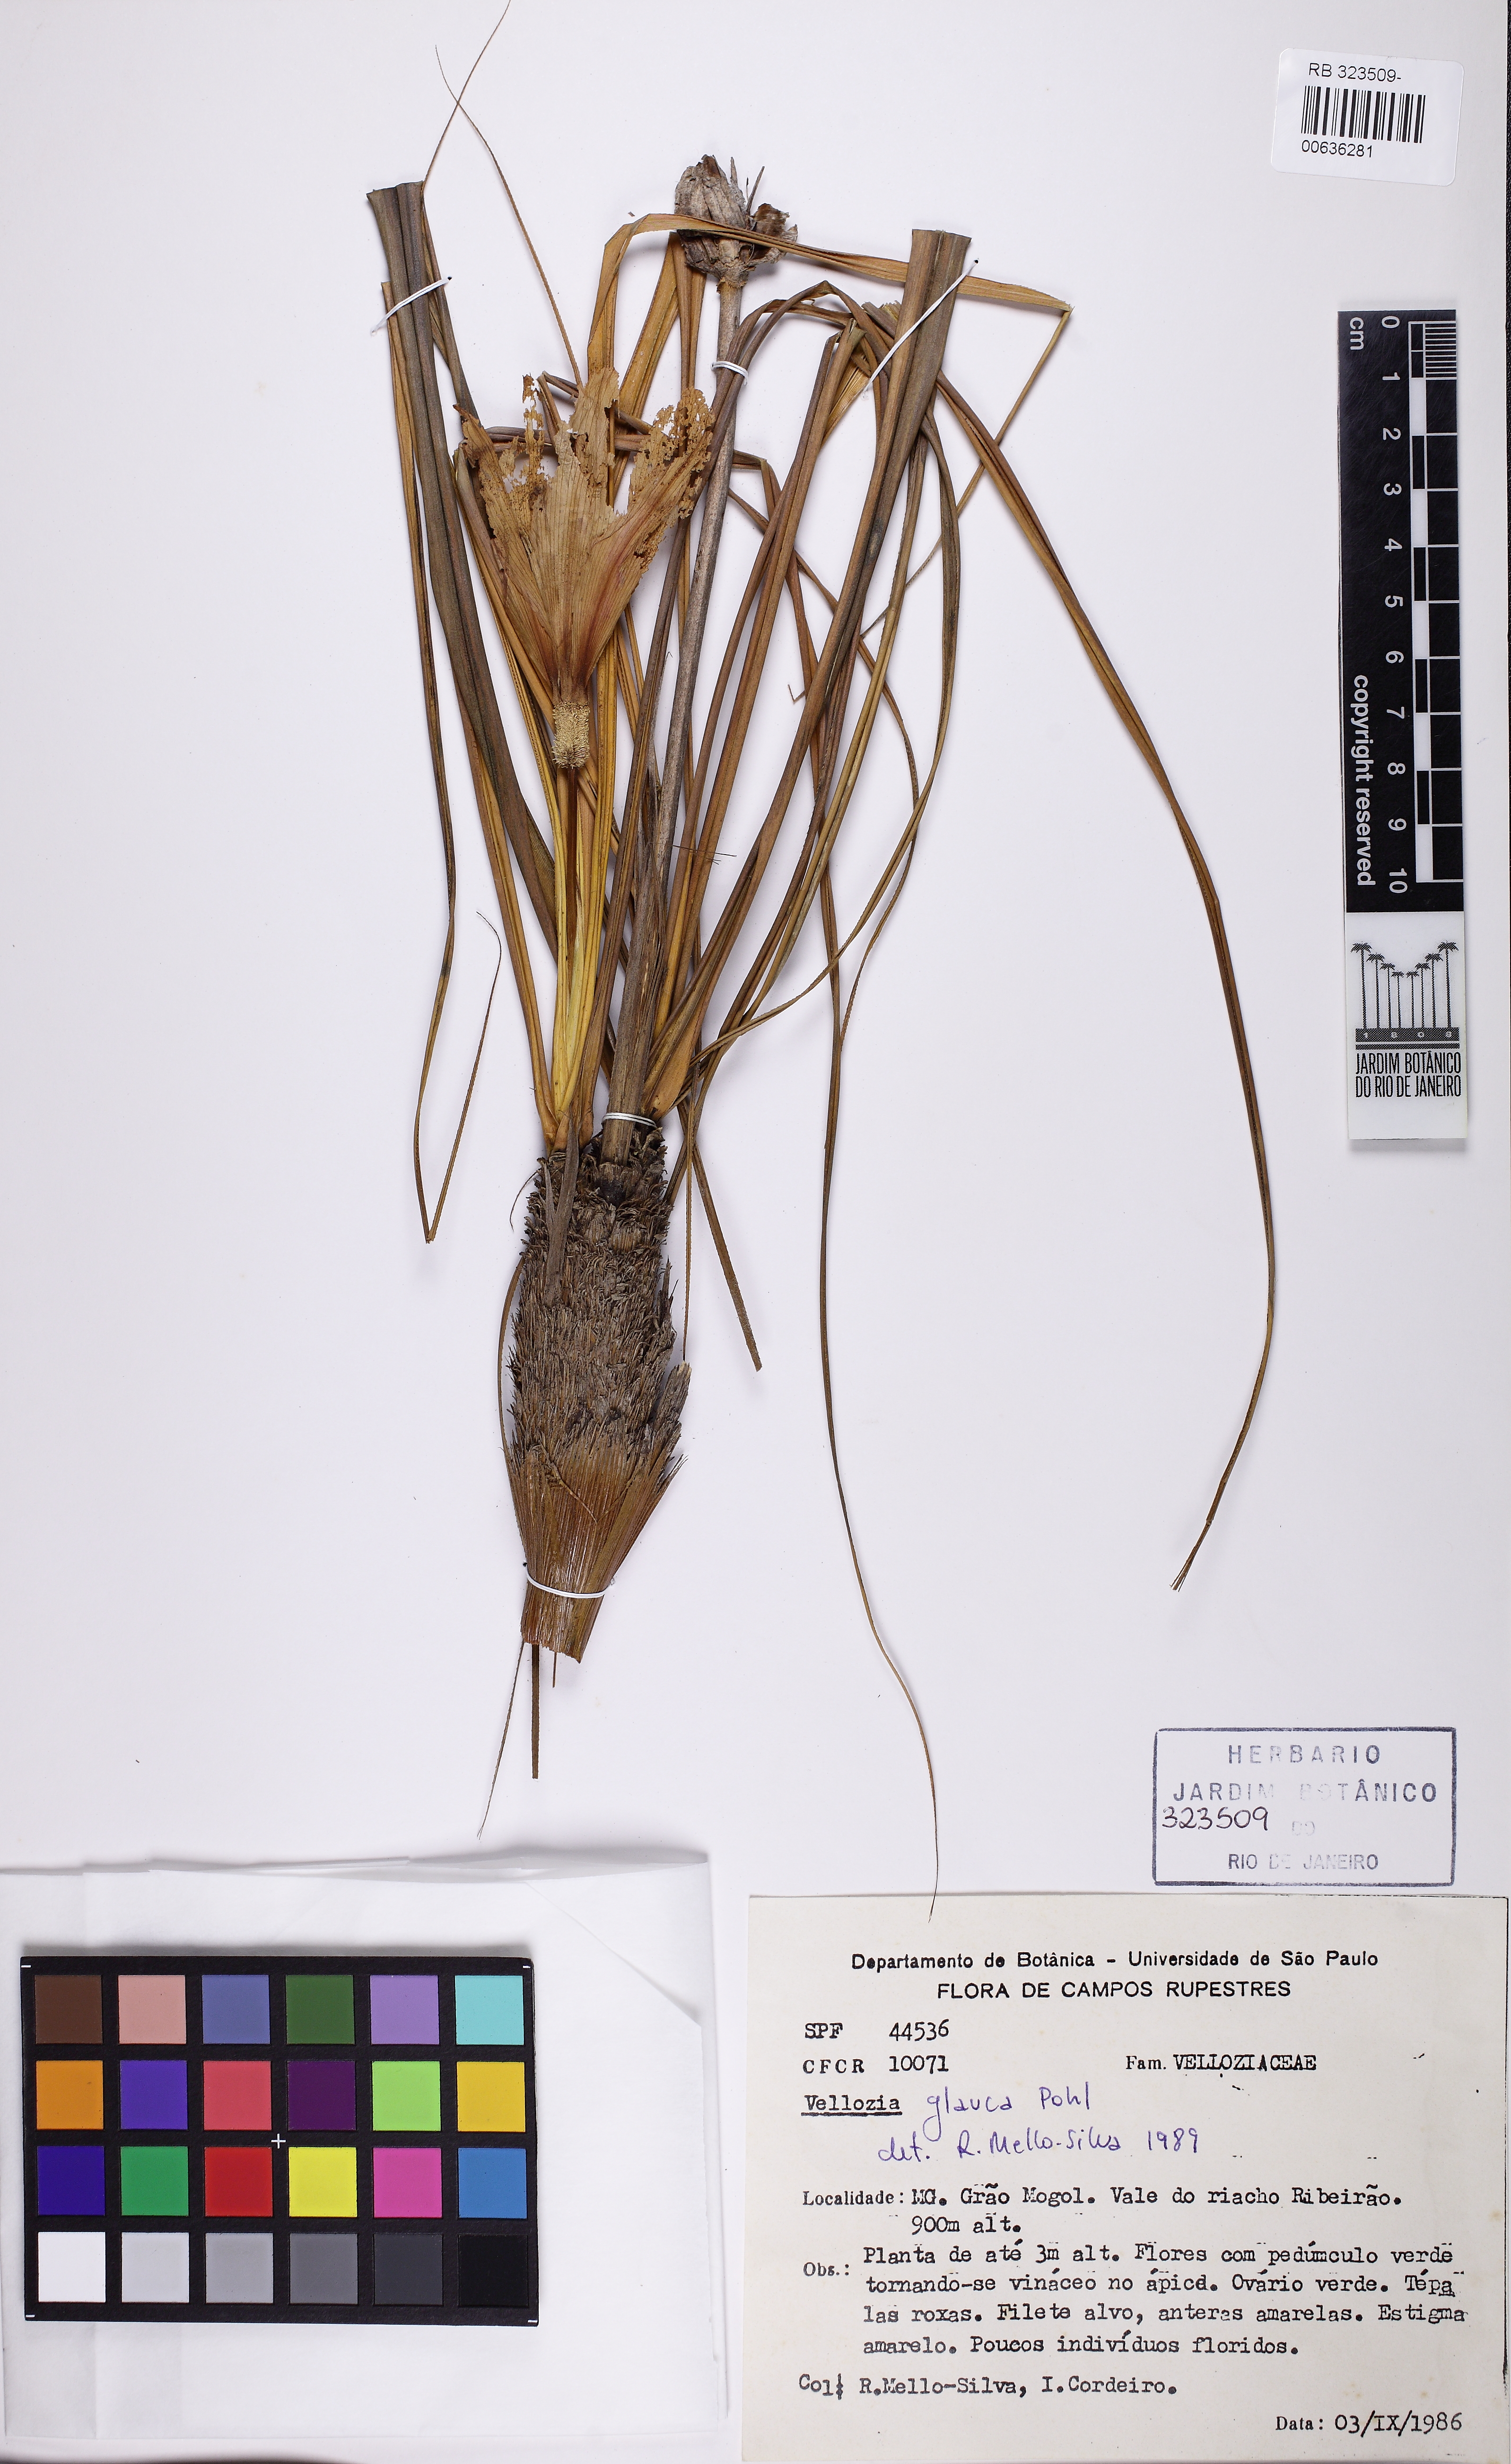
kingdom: Plantae
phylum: Tracheophyta
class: Liliopsida
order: Pandanales
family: Velloziaceae
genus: Vellozia
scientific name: Vellozia glauca
